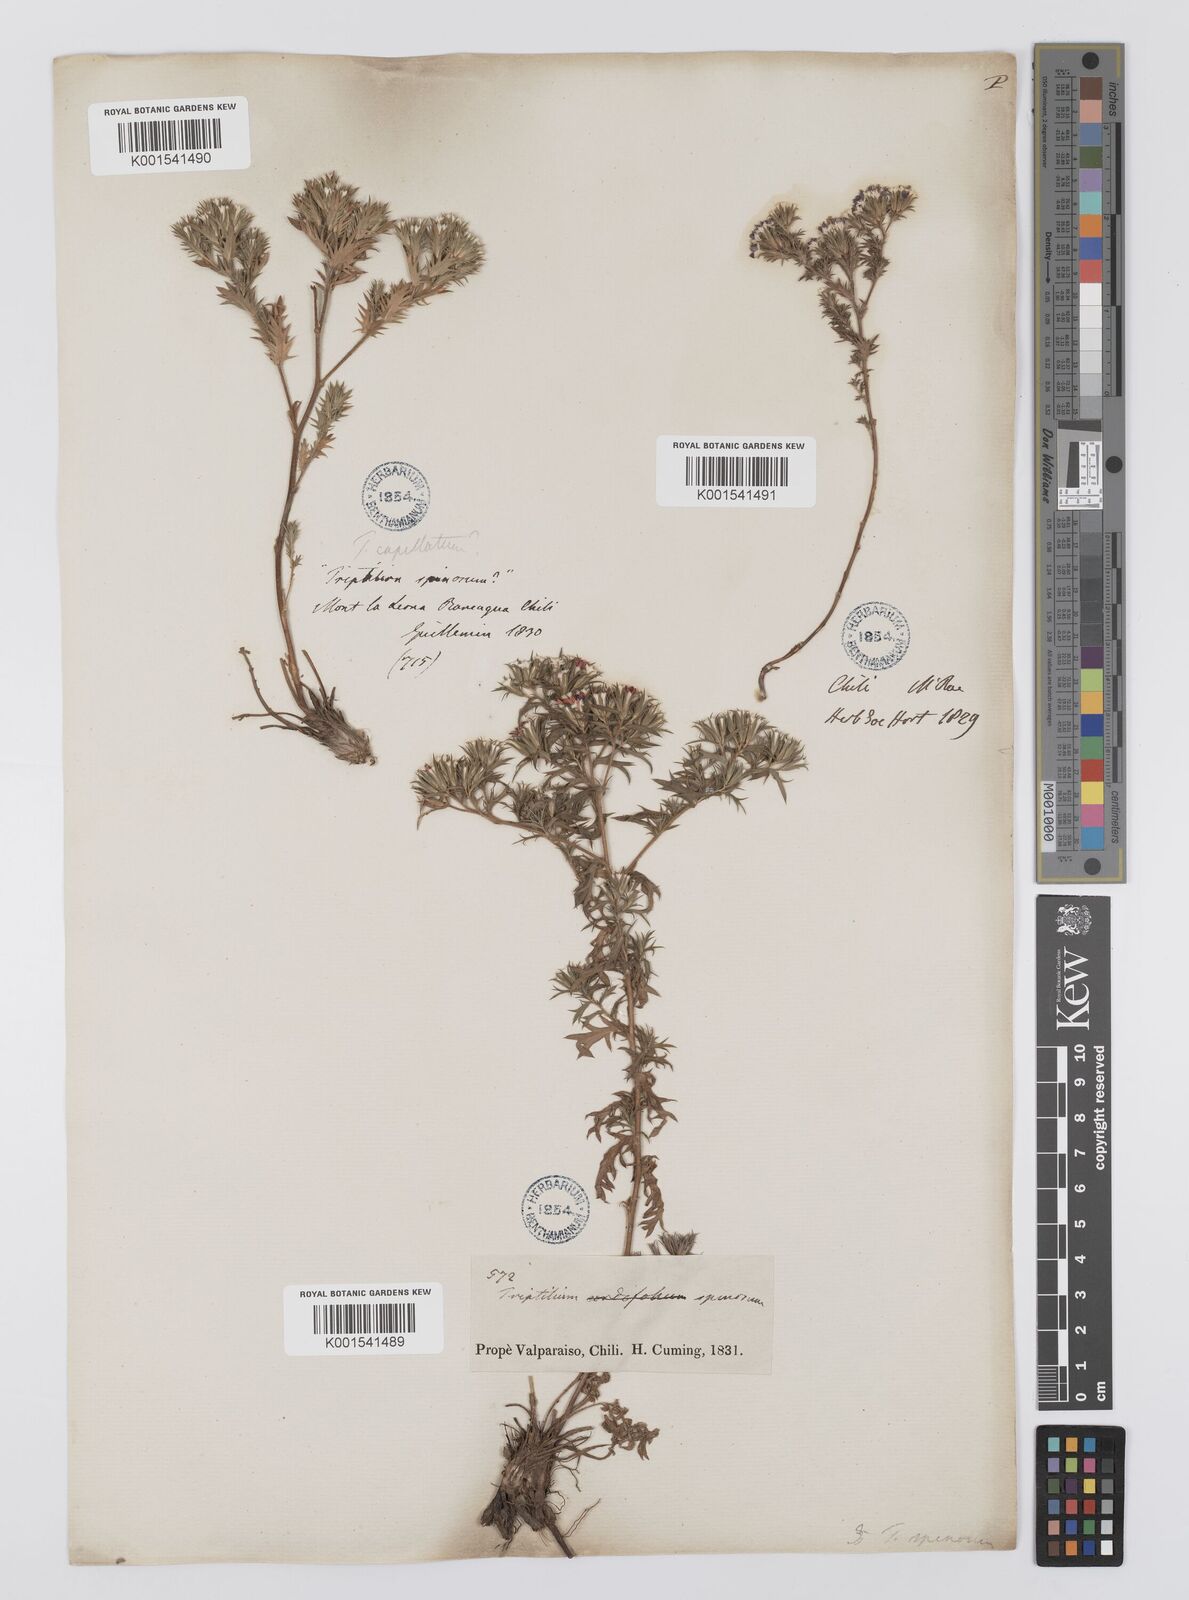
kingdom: Plantae
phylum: Tracheophyta
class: Magnoliopsida
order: Asterales
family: Asteraceae
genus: Triptilion
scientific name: Triptilion spinosum
